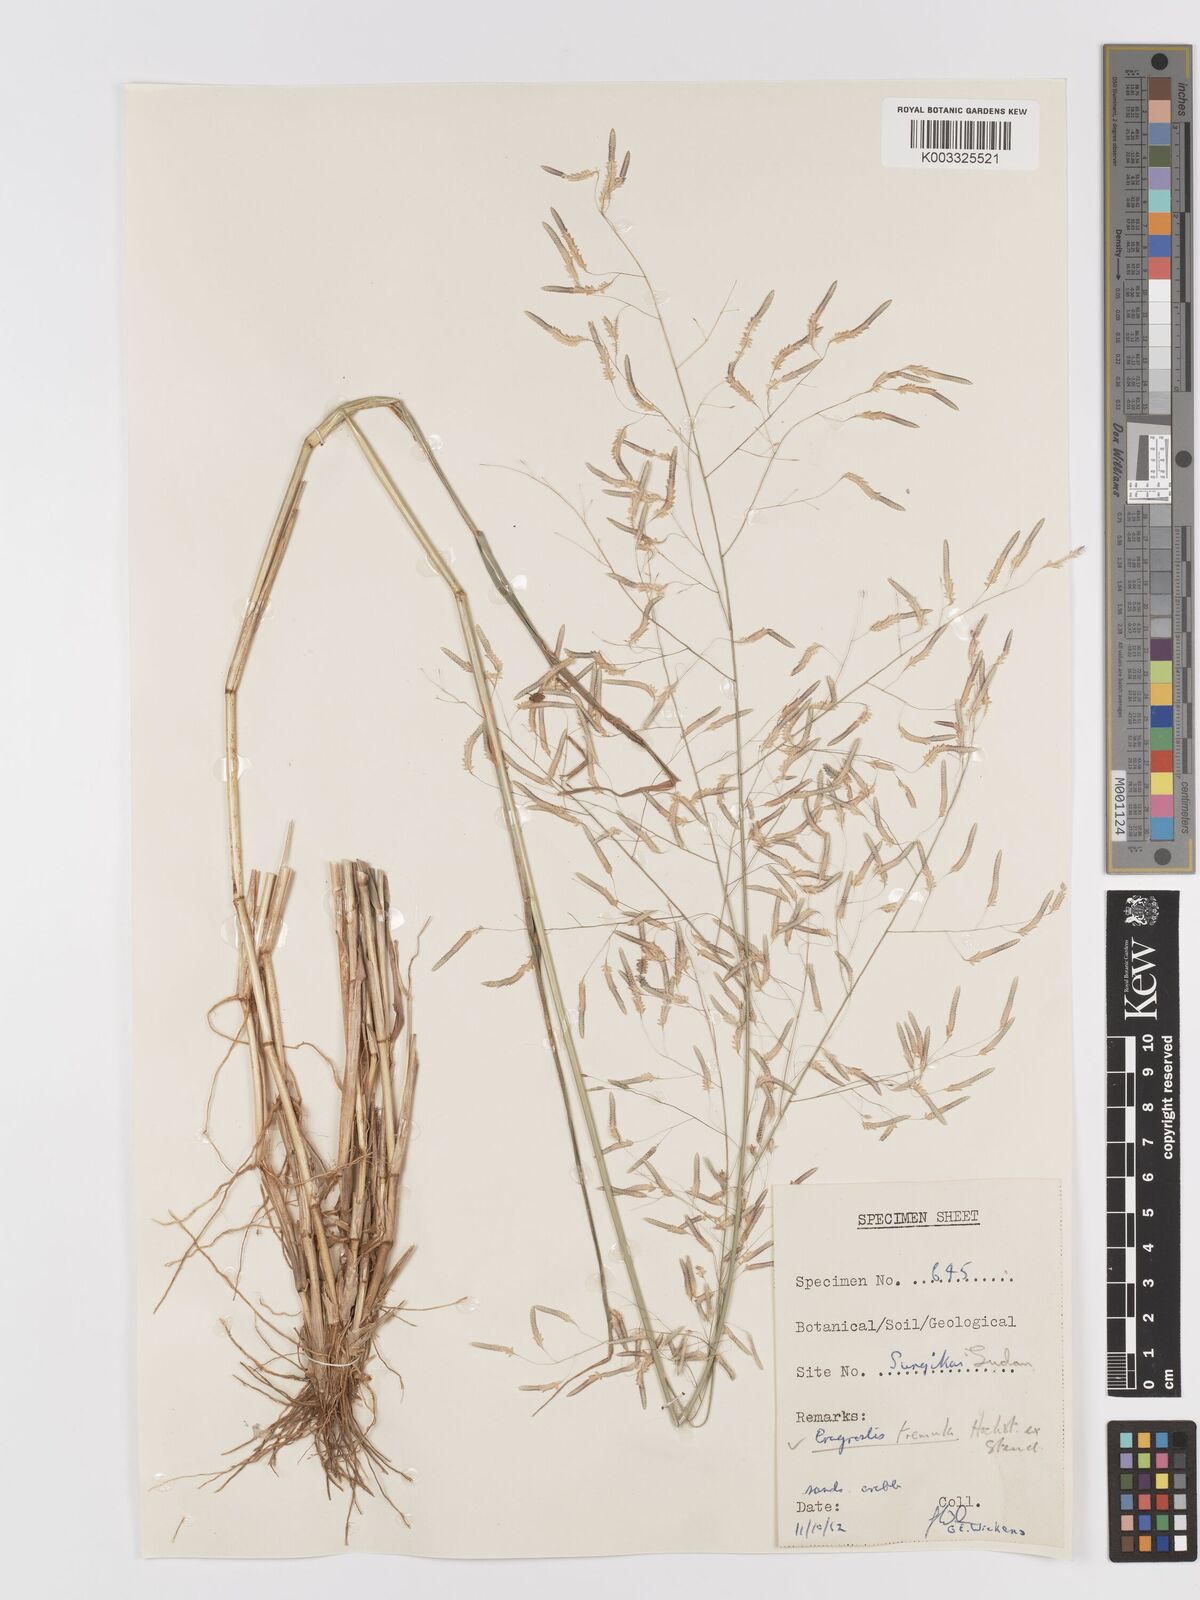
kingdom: Plantae
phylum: Tracheophyta
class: Liliopsida
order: Poales
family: Poaceae
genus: Eragrostis
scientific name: Eragrostis tremula
